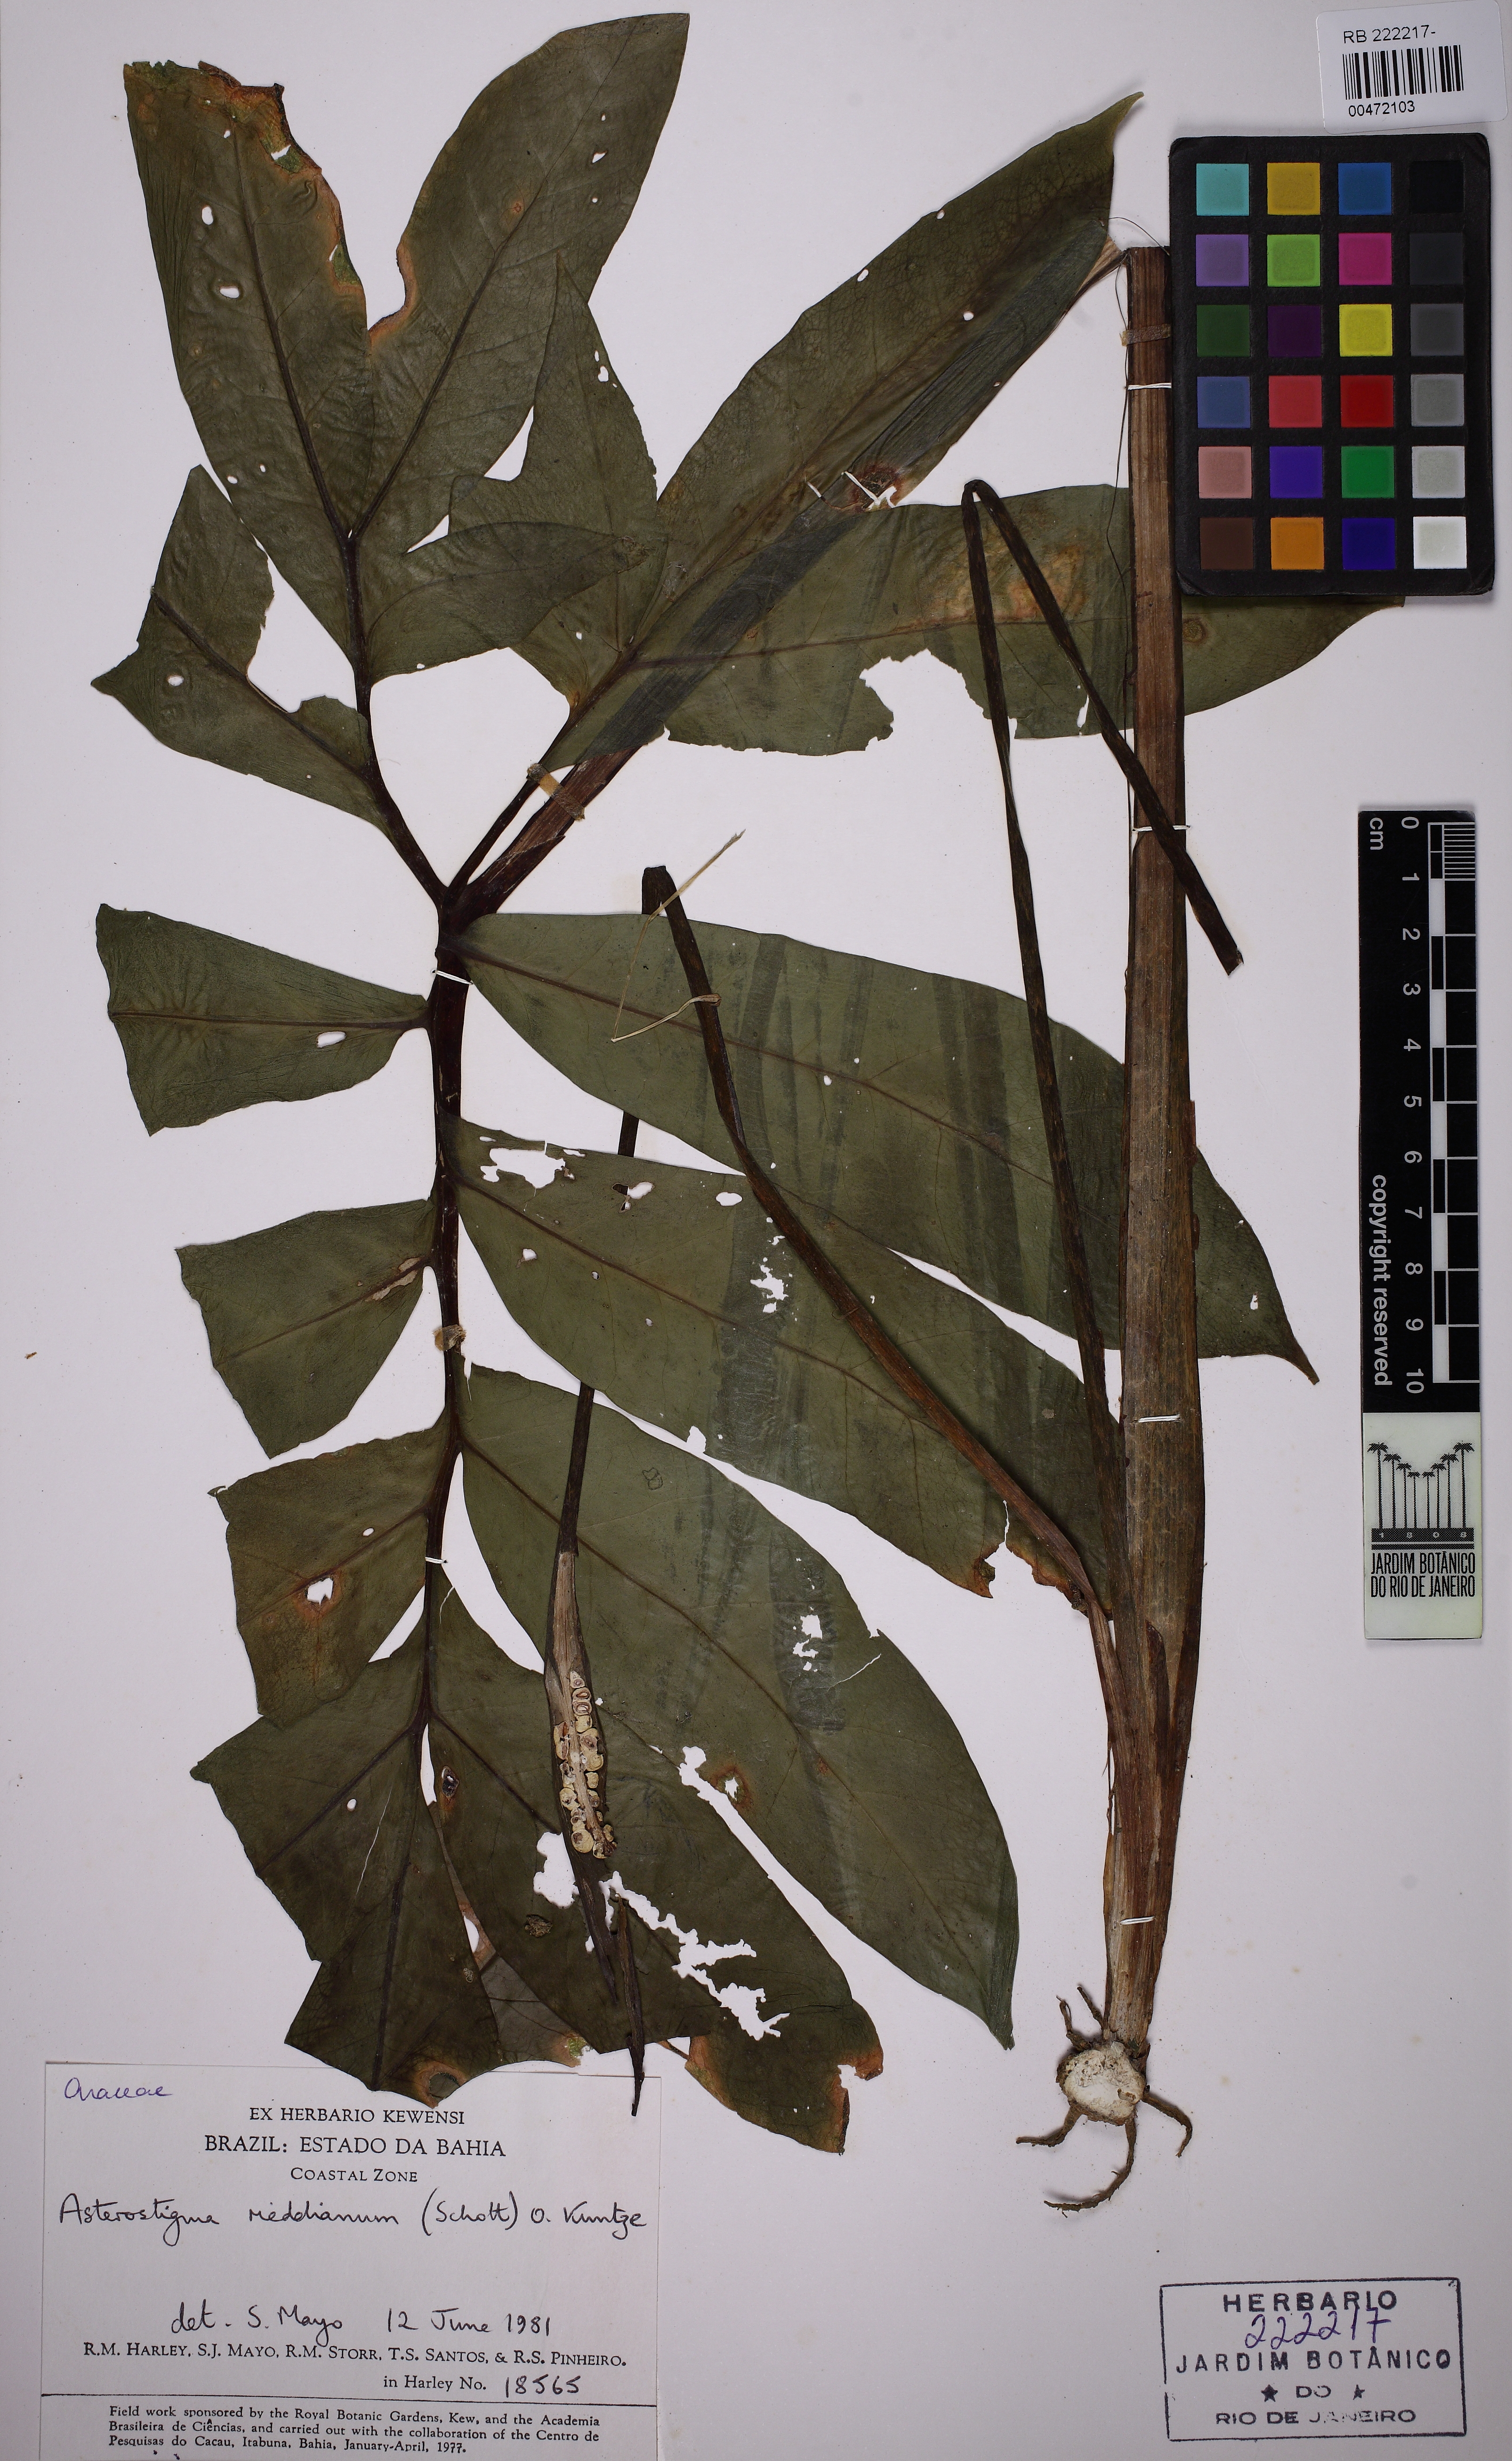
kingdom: Plantae
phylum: Tracheophyta
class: Liliopsida
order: Alismatales
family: Araceae
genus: Asterostigma
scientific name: Asterostigma riedelianum
